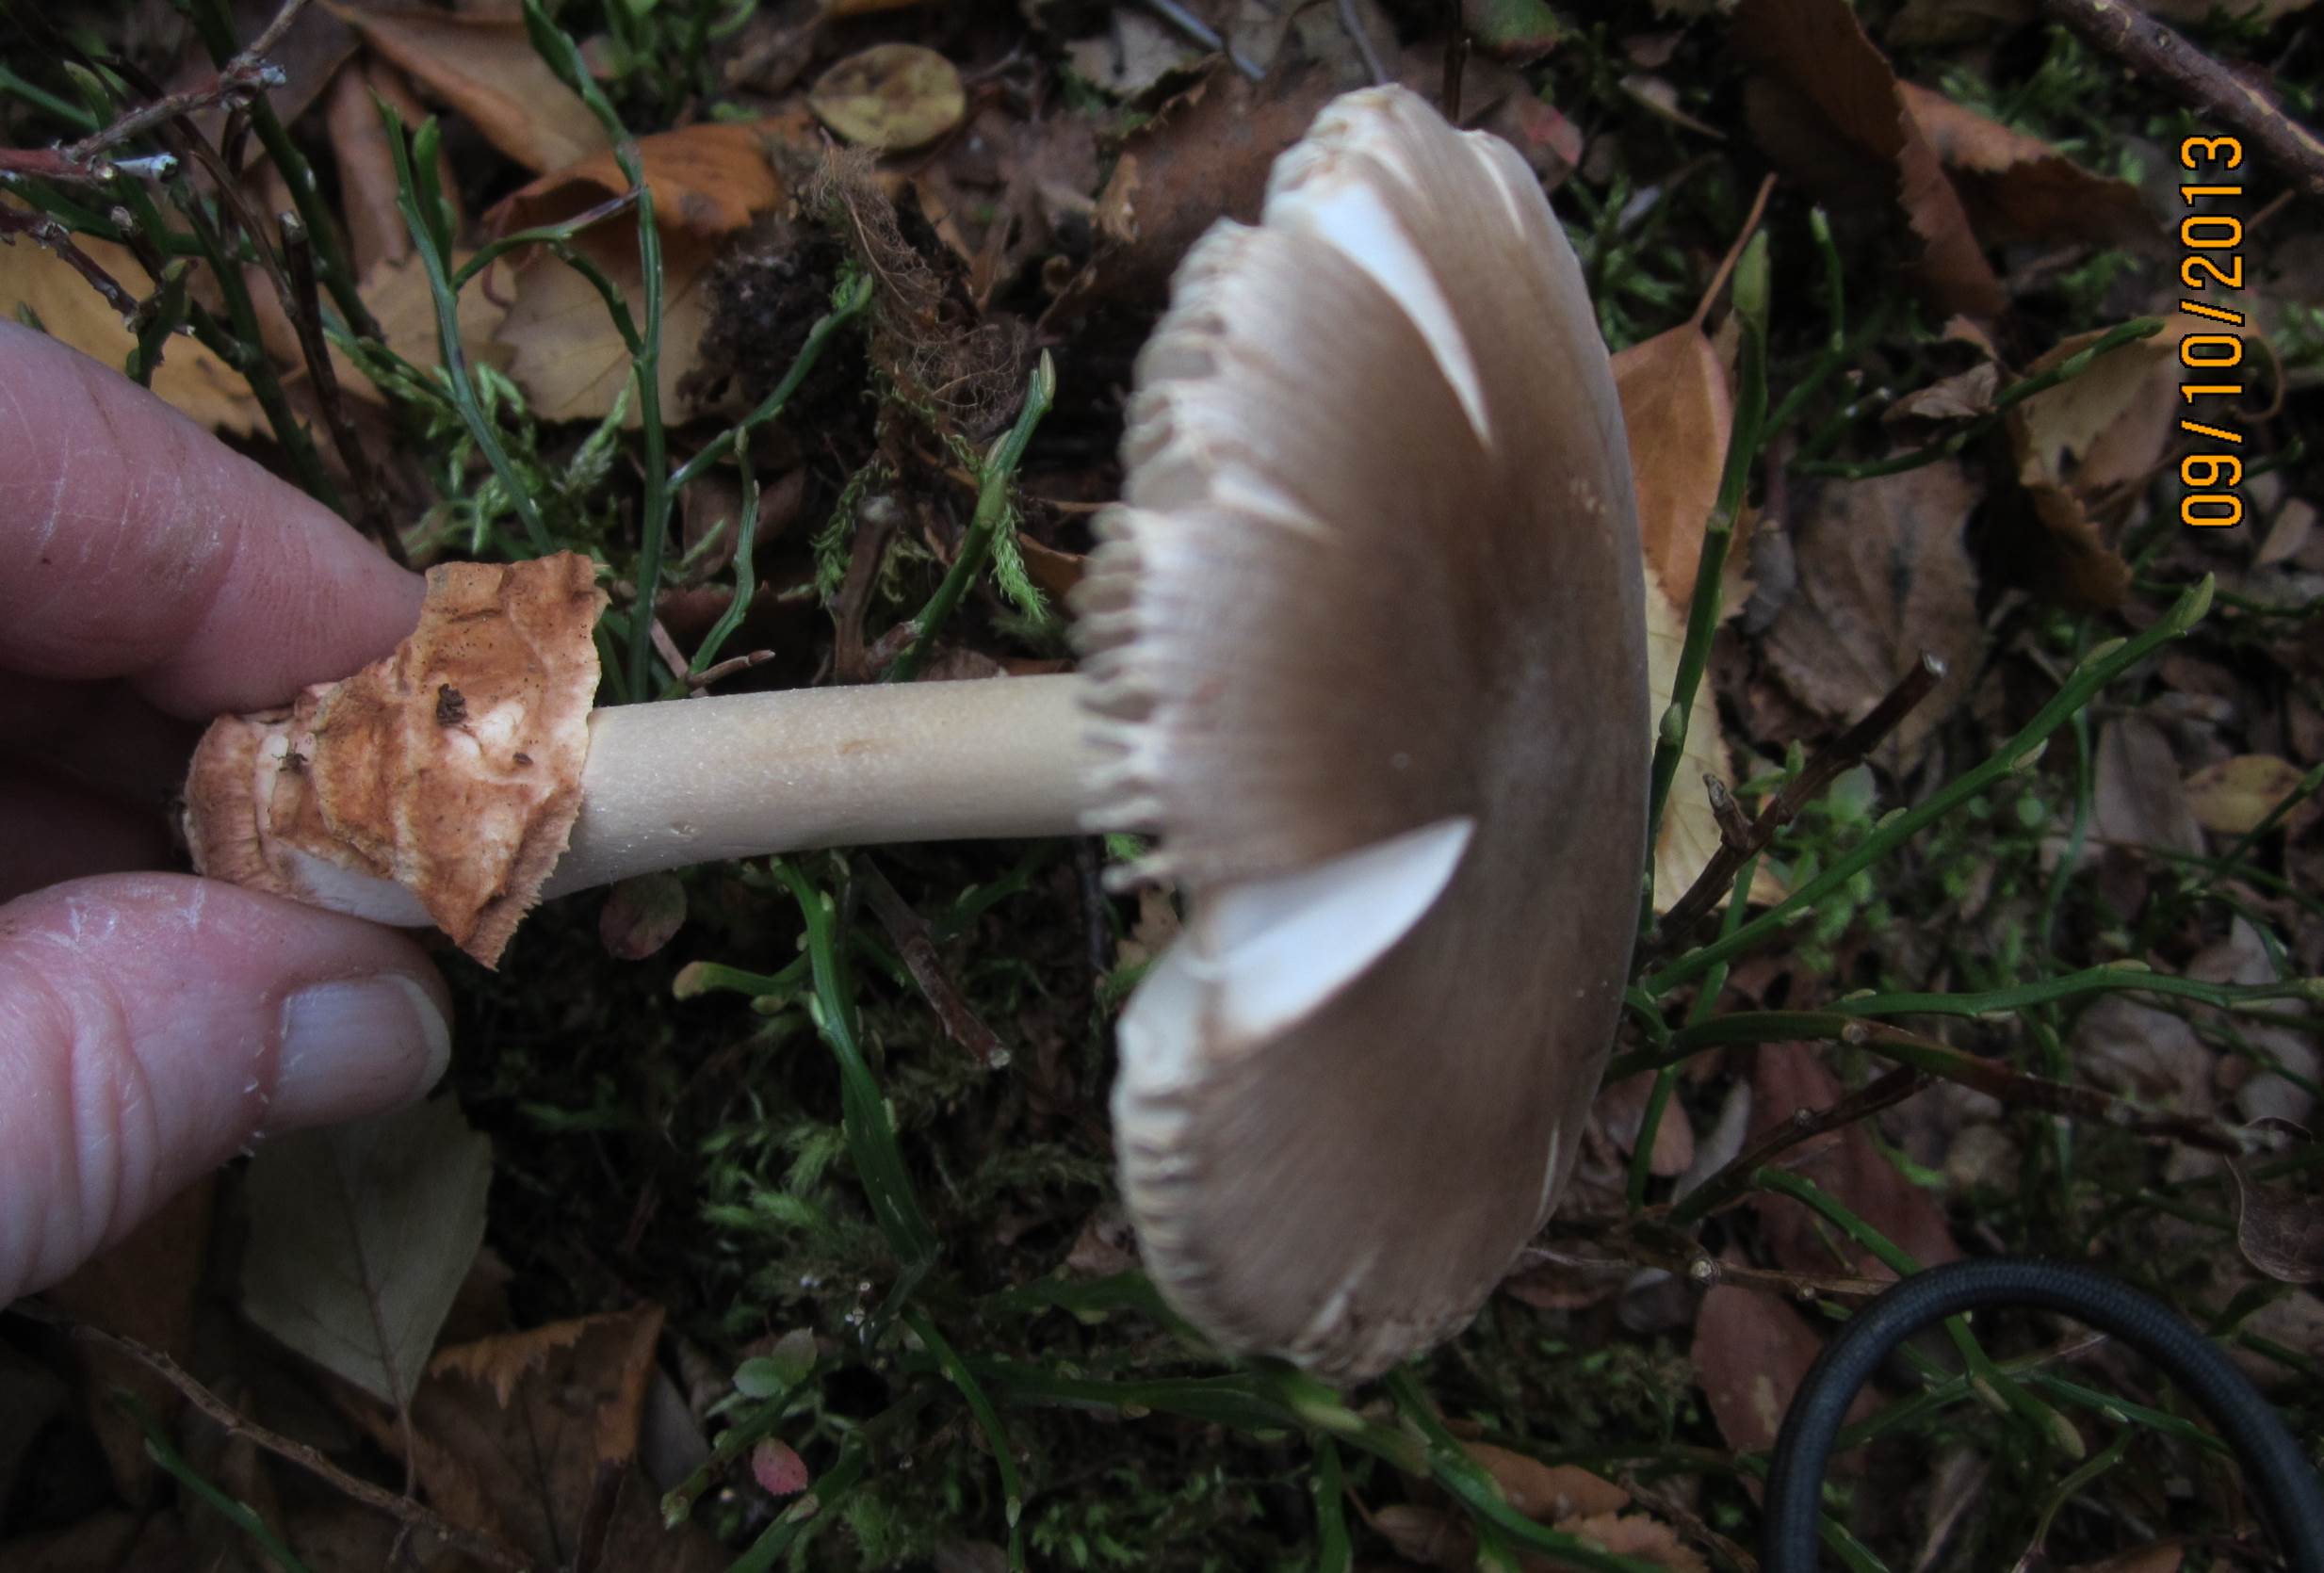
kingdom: Fungi
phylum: Basidiomycota
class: Agaricomycetes
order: Agaricales
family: Amanitaceae
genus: Amanita
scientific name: Amanita vaginata
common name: grå kam-fluesvamp
